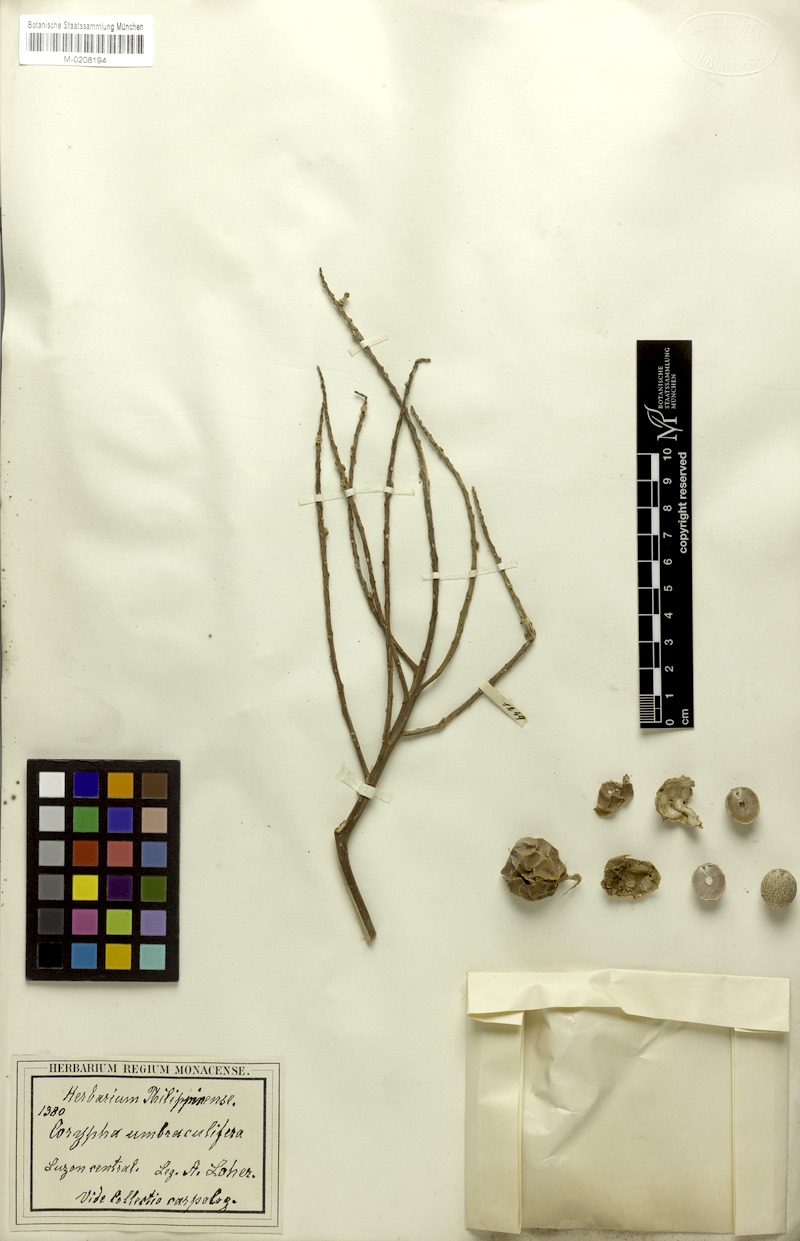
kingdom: Plantae
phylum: Tracheophyta
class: Liliopsida
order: Arecales
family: Arecaceae
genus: Corypha
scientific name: Corypha umbraculifera
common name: Talipot palm
